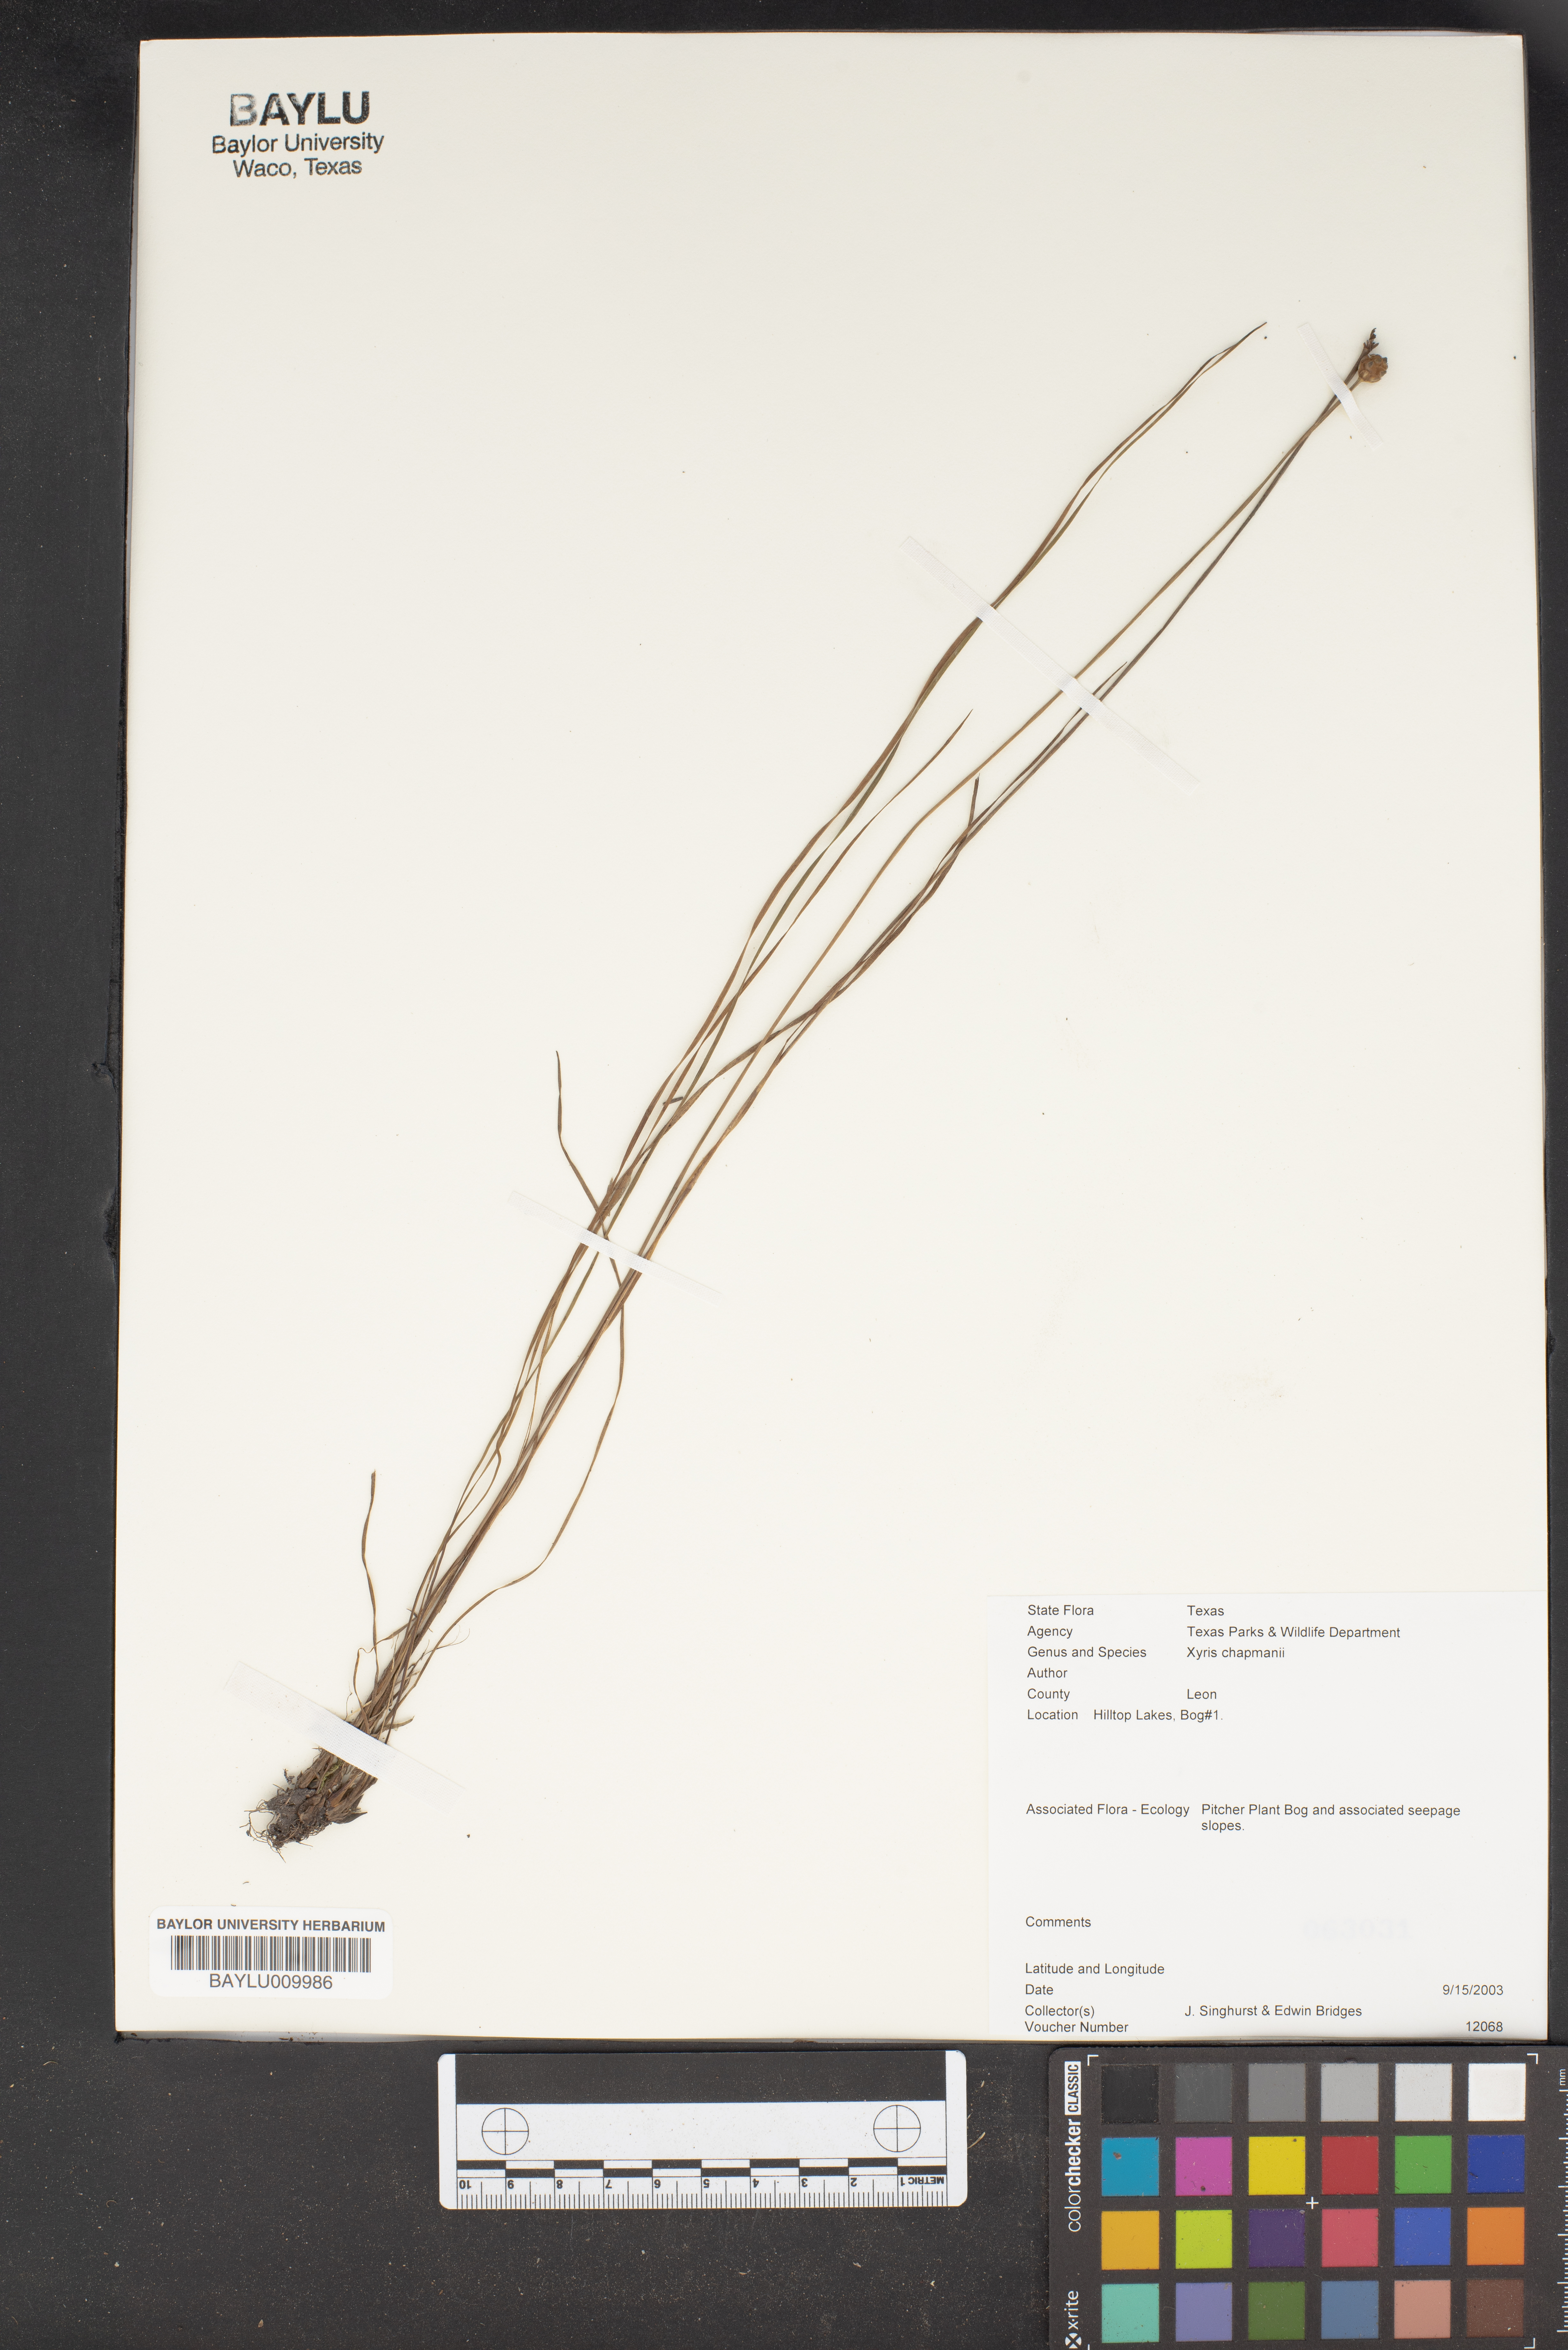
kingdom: Plantae
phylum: Tracheophyta
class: Liliopsida
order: Poales
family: Xyridaceae
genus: Xyris
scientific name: Xyris chapmanii
